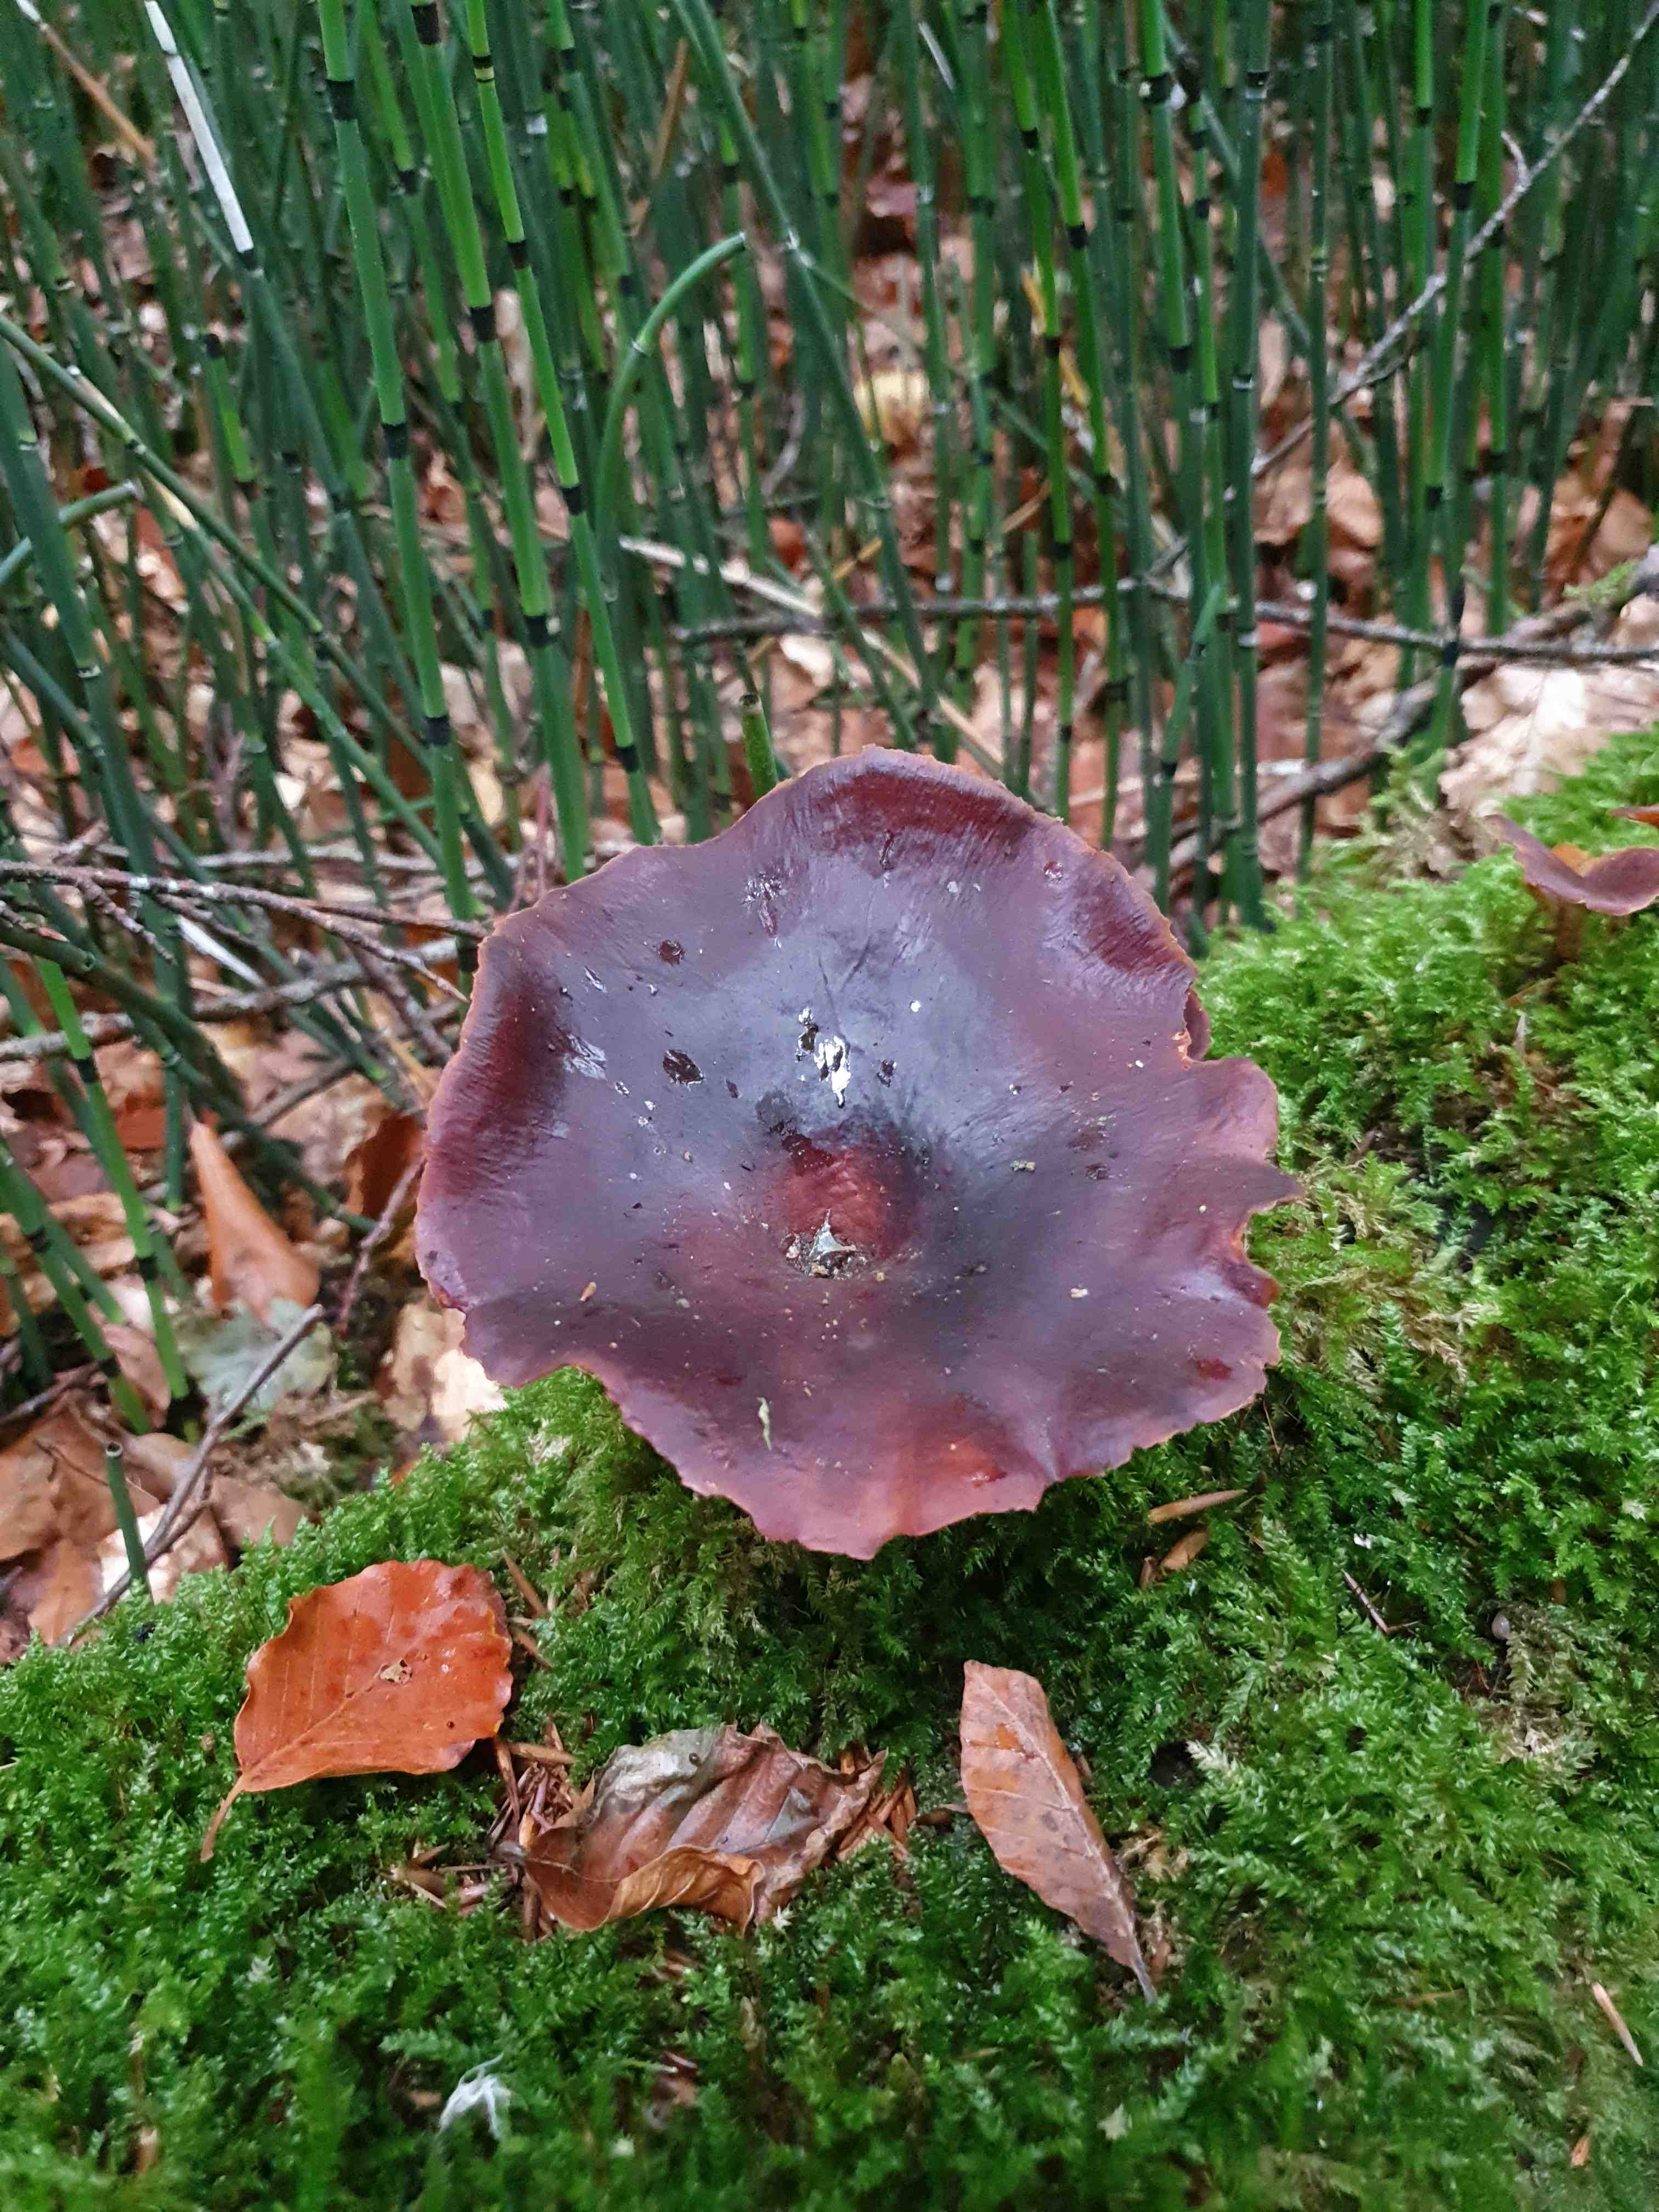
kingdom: Fungi
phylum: Basidiomycota
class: Agaricomycetes
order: Polyporales
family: Polyporaceae
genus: Picipes
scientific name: Picipes badius
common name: kastaniebrun stilkporesvamp
